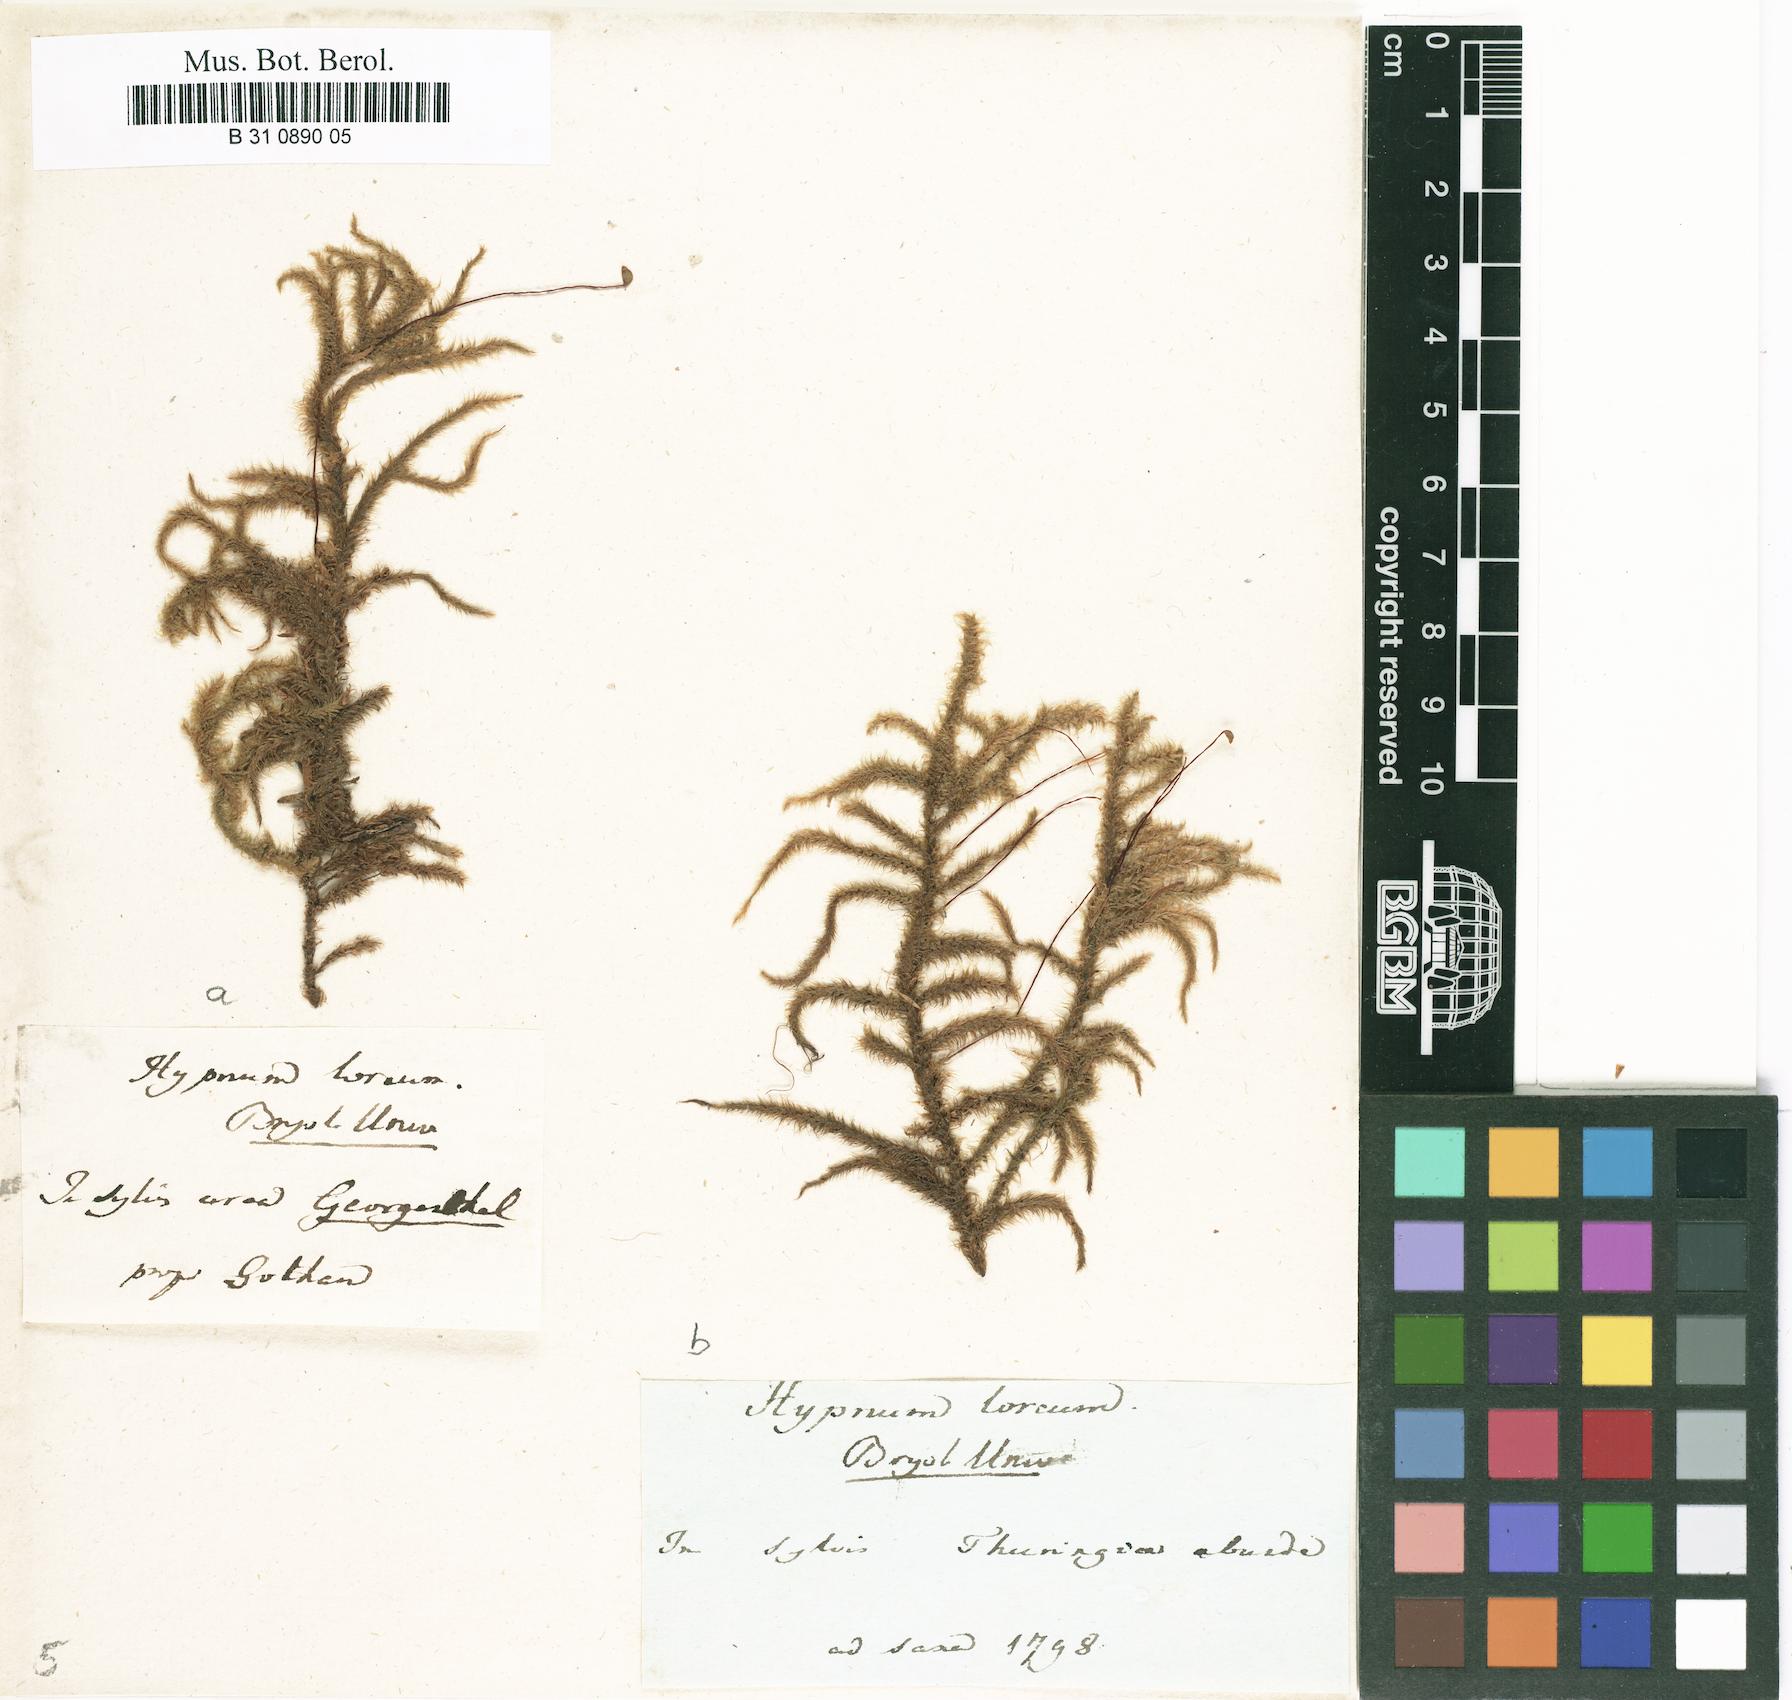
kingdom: Plantae
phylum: Bryophyta
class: Bryopsida
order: Hypnales
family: Hylocomiaceae
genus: Rhytidiadelphus
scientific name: Rhytidiadelphus loreus
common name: Lanky moss
